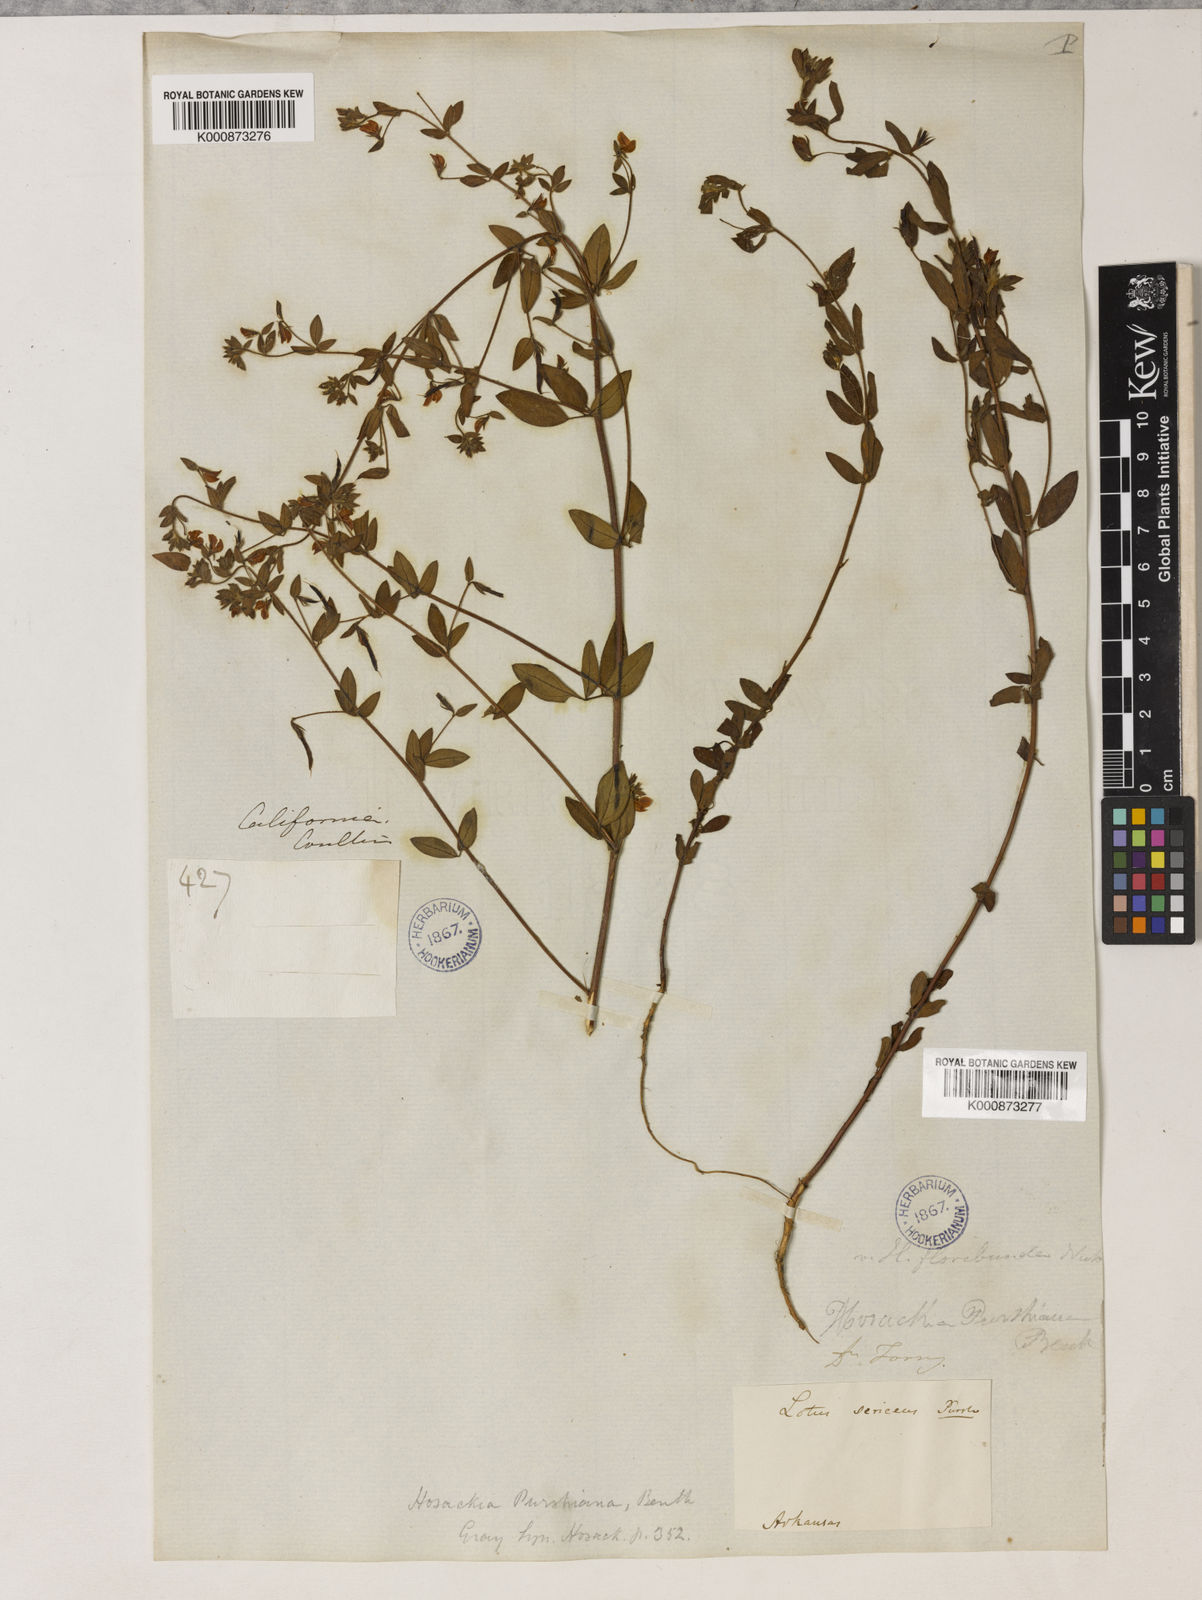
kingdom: Plantae
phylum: Tracheophyta
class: Magnoliopsida
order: Fabales
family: Fabaceae
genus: Collaea
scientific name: Collaea speciosa
